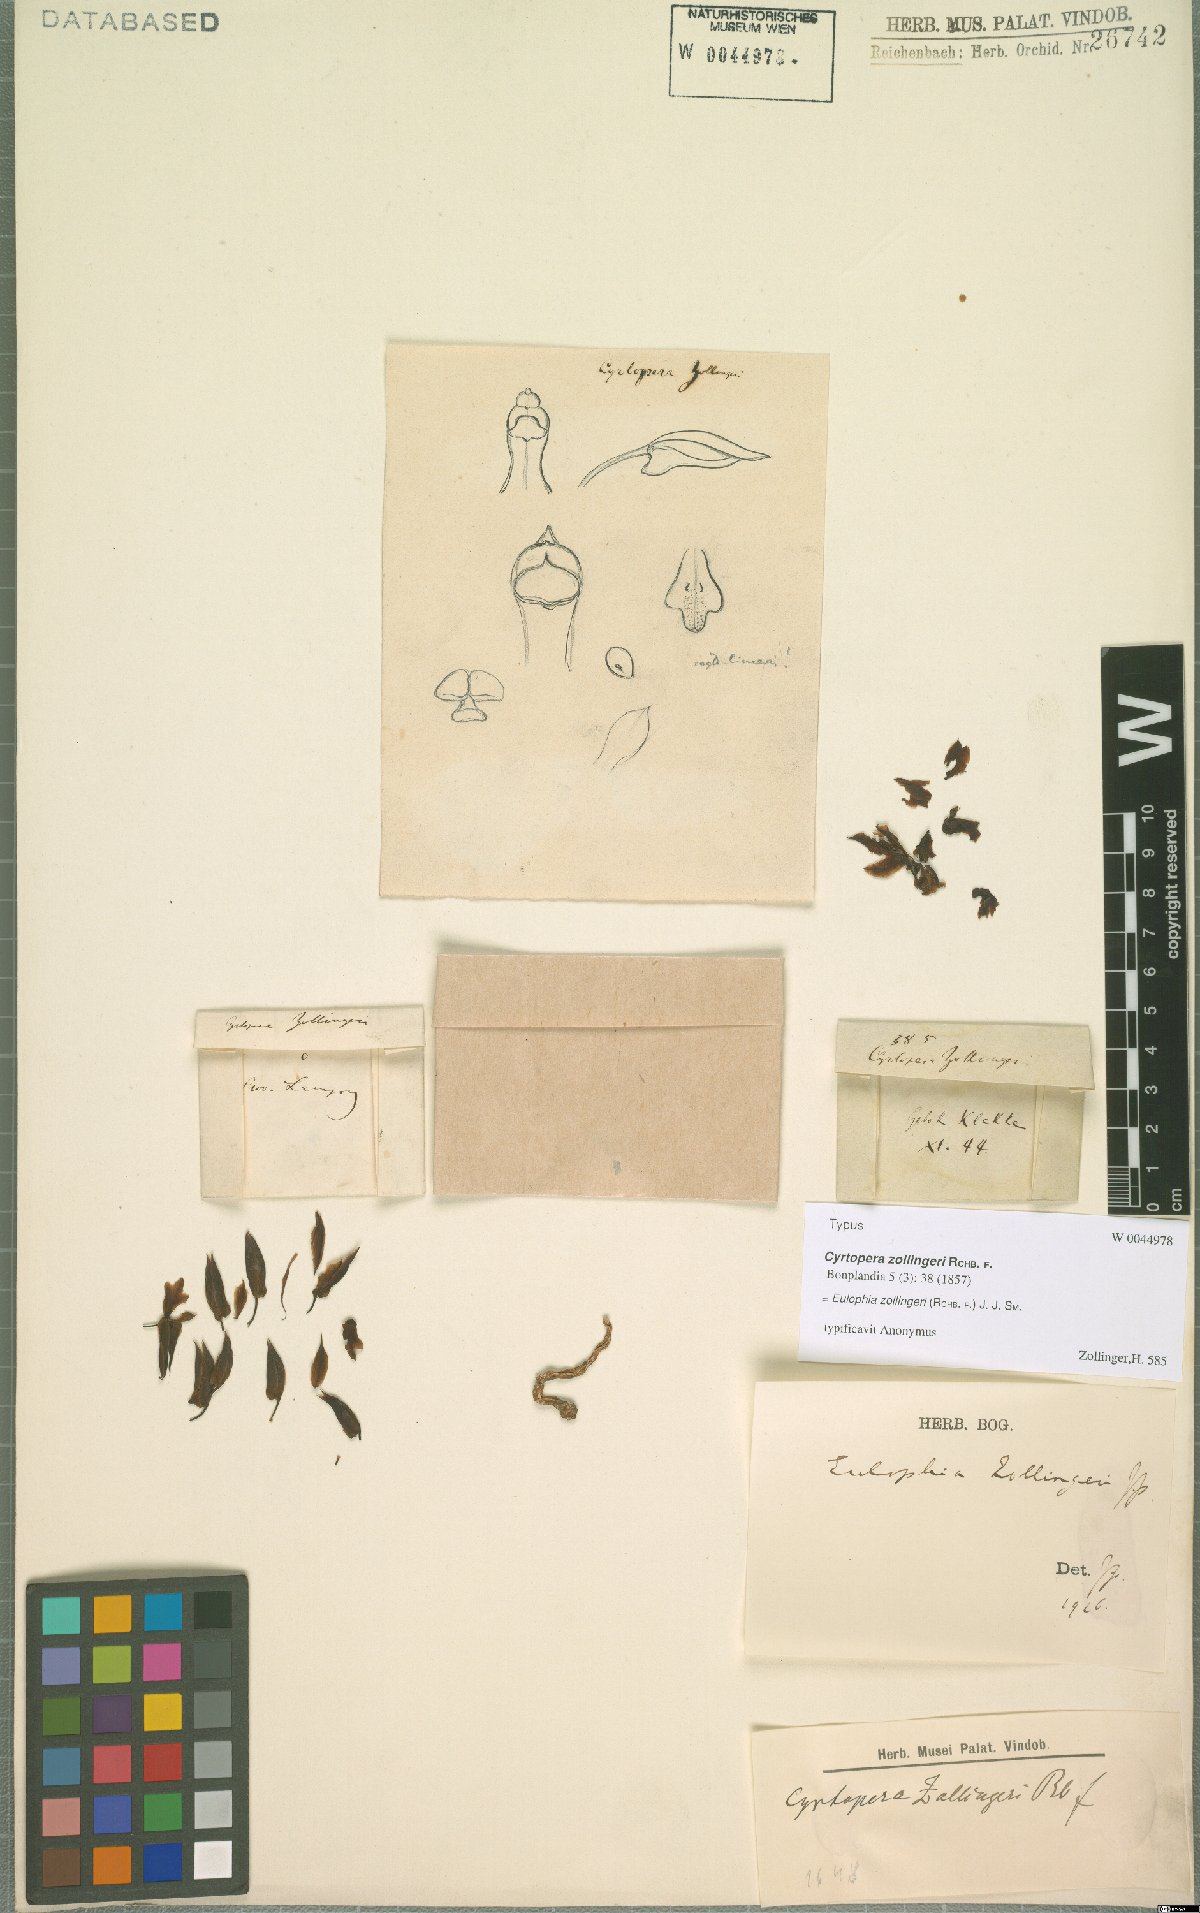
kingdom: Plantae
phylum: Tracheophyta
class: Liliopsida
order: Asparagales
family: Orchidaceae
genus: Eulophia
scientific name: Eulophia zollingeri
